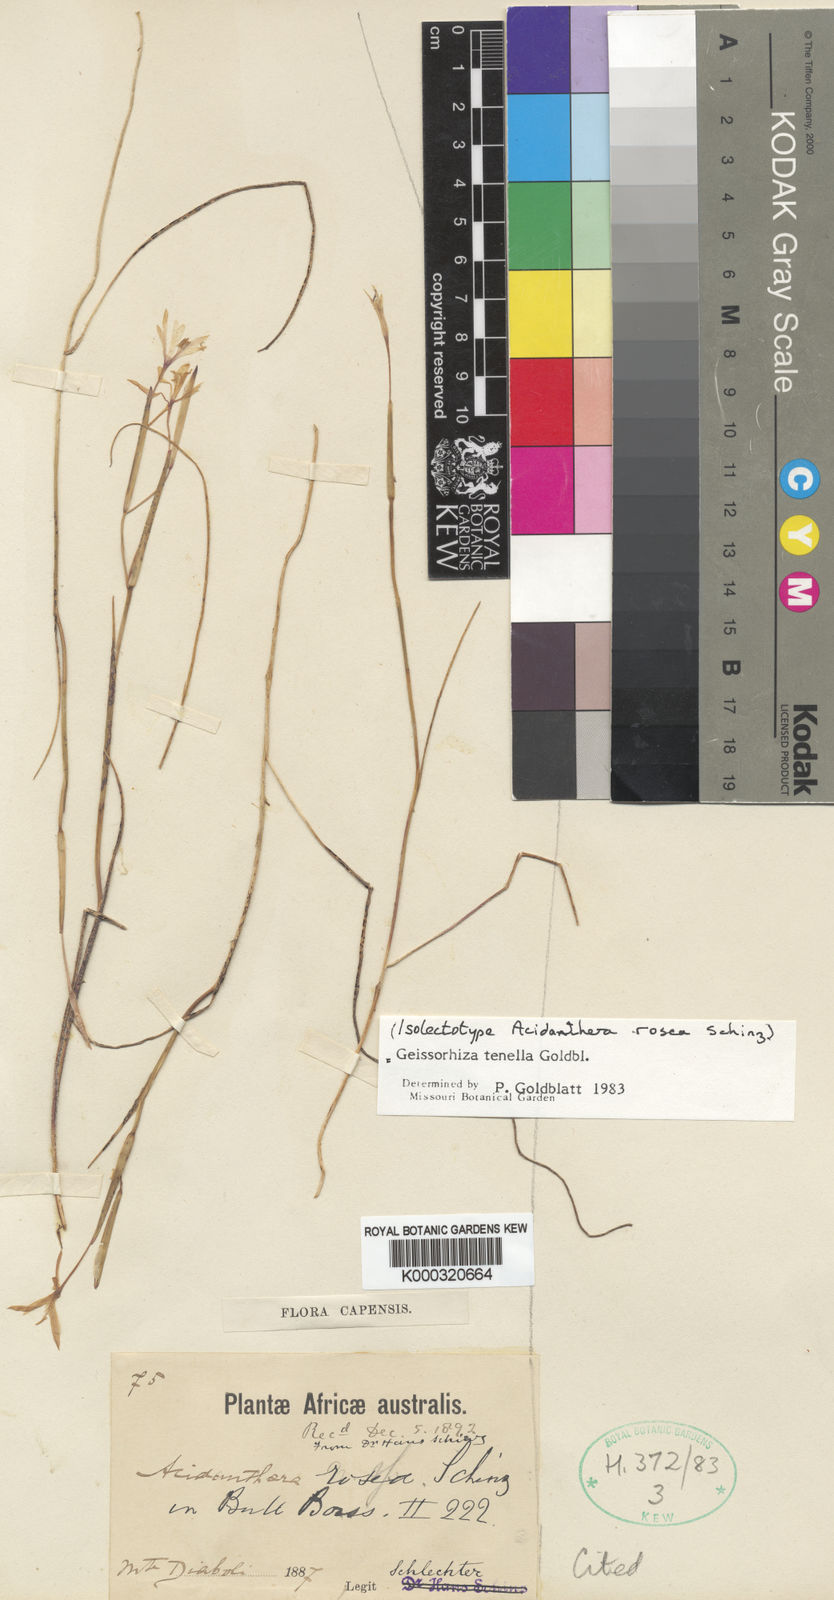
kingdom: Plantae
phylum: Tracheophyta
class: Liliopsida
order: Asparagales
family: Iridaceae
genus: Geissorhiza
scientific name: Geissorhiza tenella
